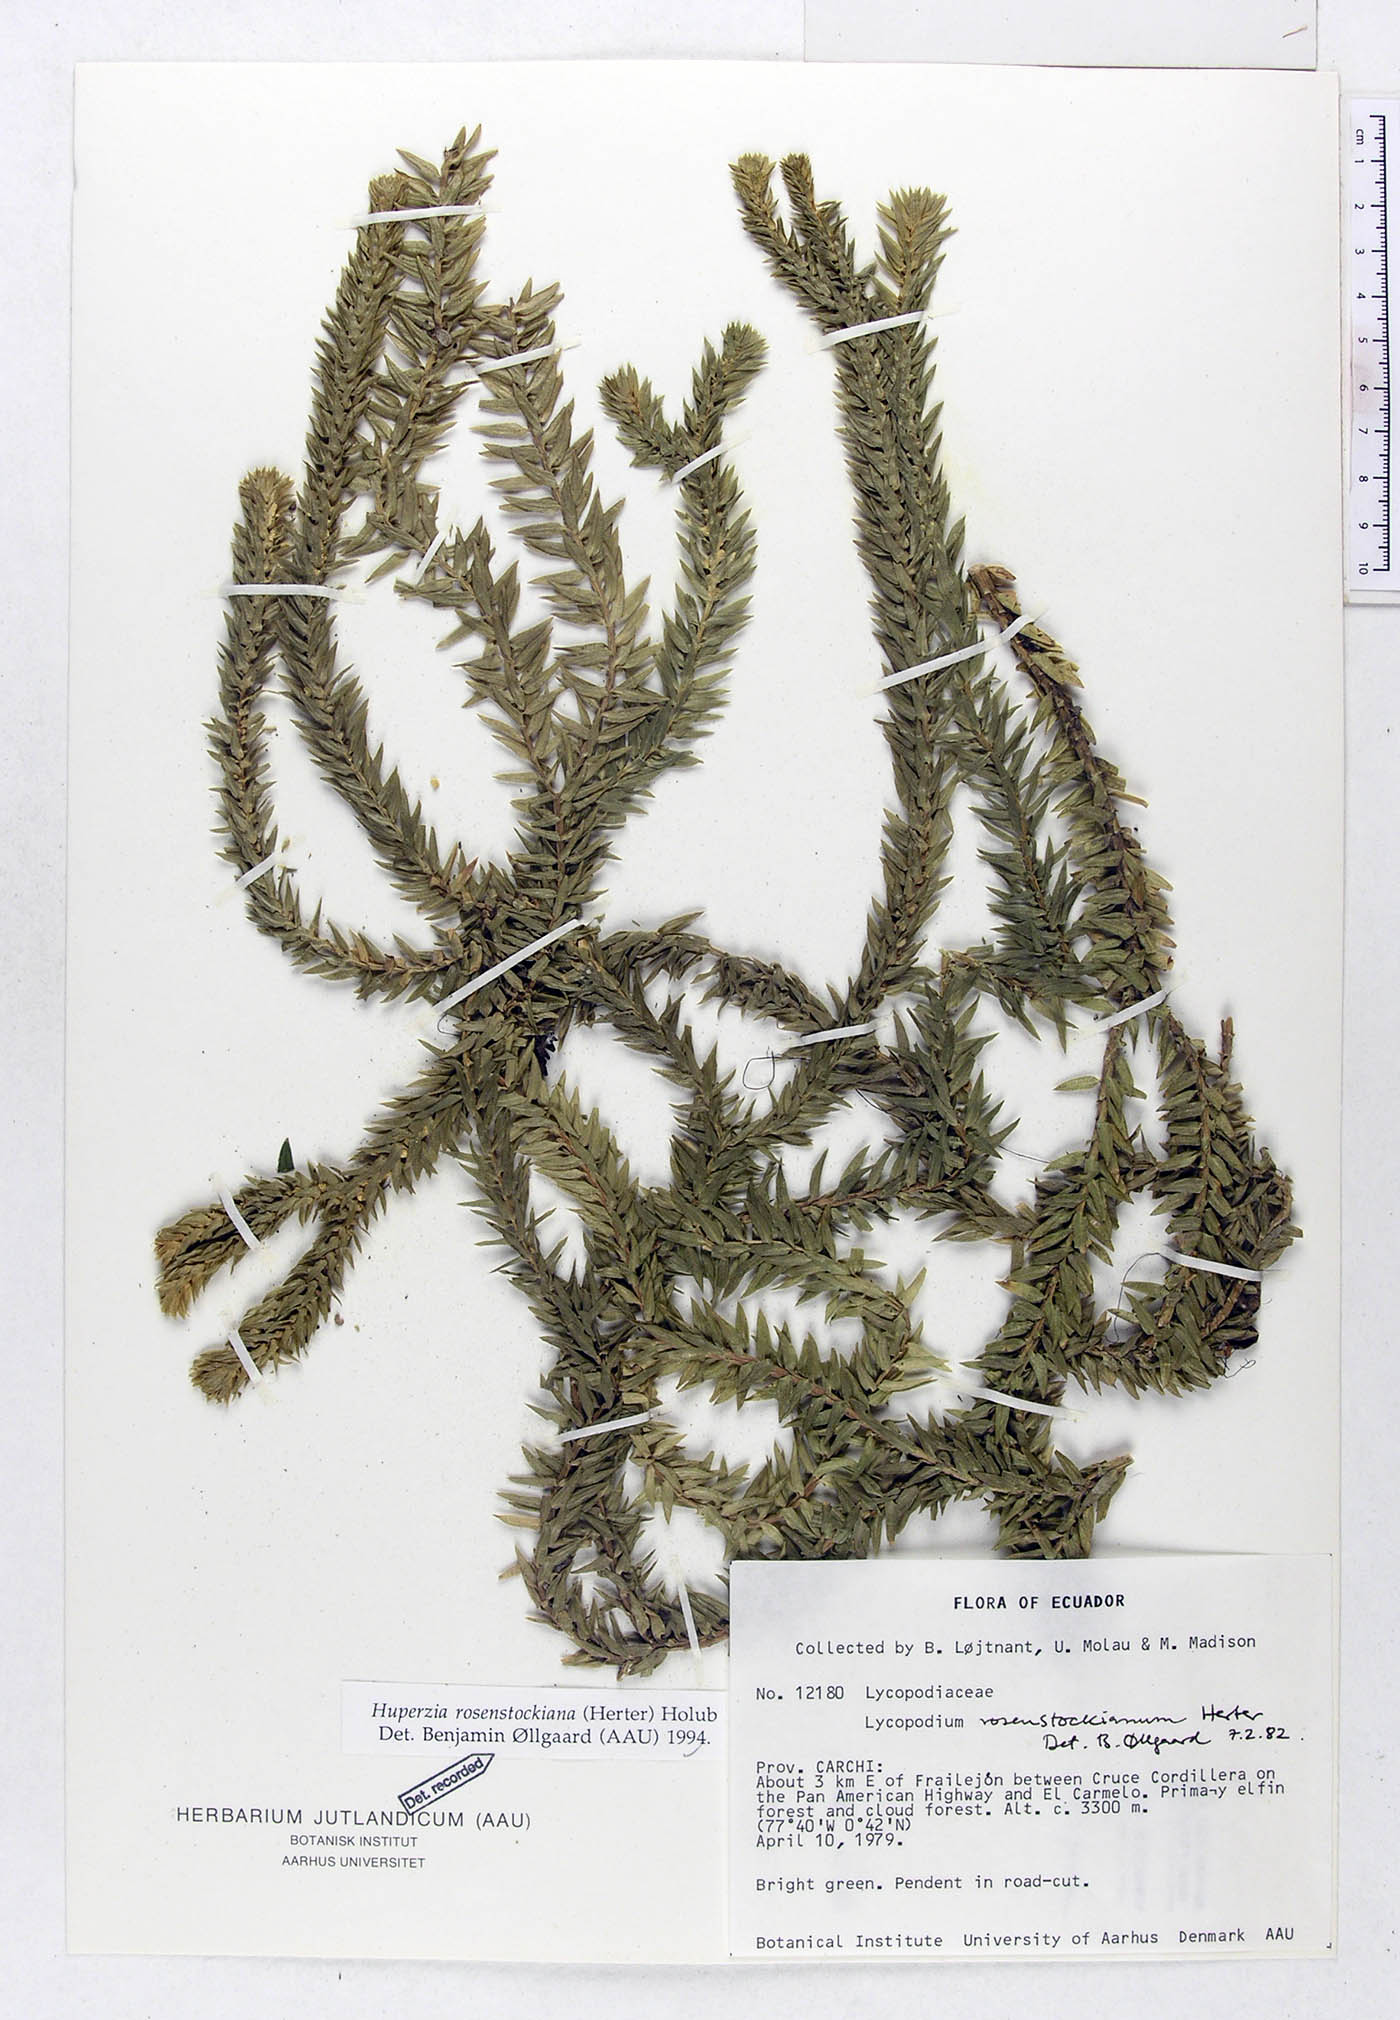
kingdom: Plantae
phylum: Tracheophyta
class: Lycopodiopsida
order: Lycopodiales
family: Lycopodiaceae
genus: Phlegmariurus
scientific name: Phlegmariurus rosenstockianus
